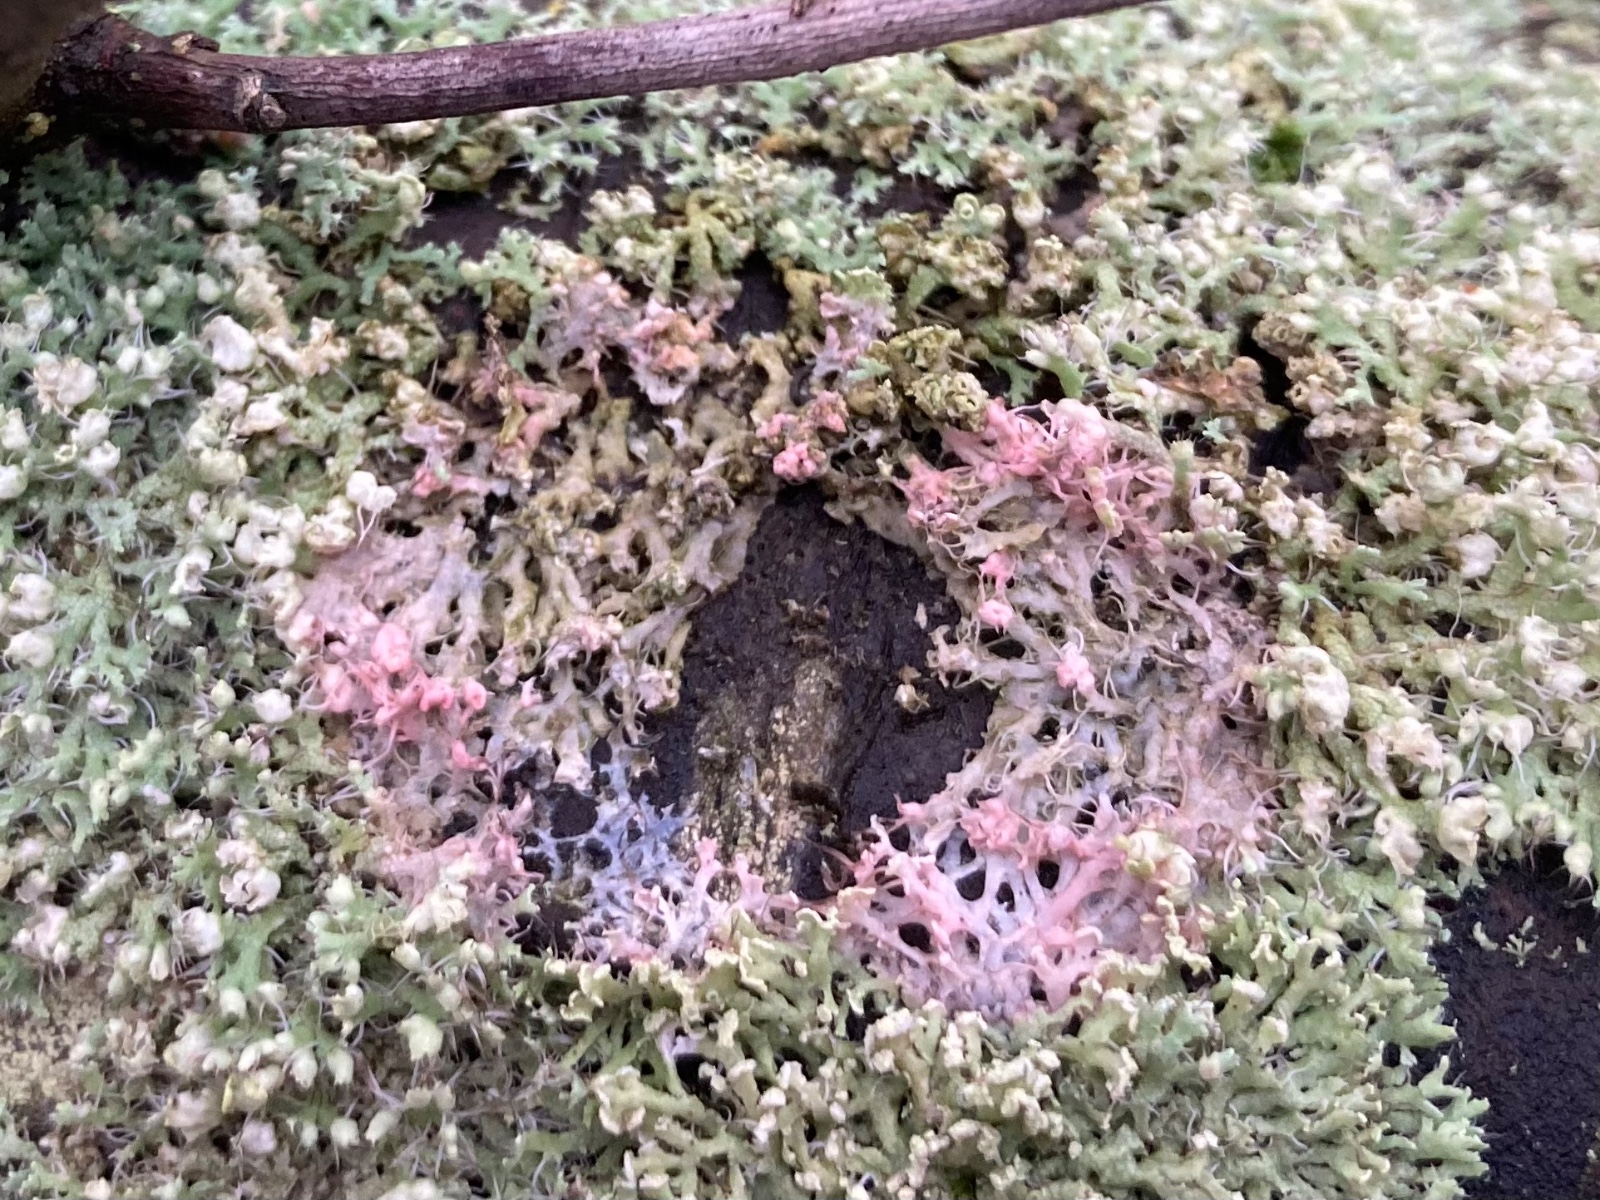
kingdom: Fungi
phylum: Basidiomycota
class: Agaricomycetes
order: Corticiales
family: Corticiaceae
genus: Laetisaria
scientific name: Laetisaria lichenicola
